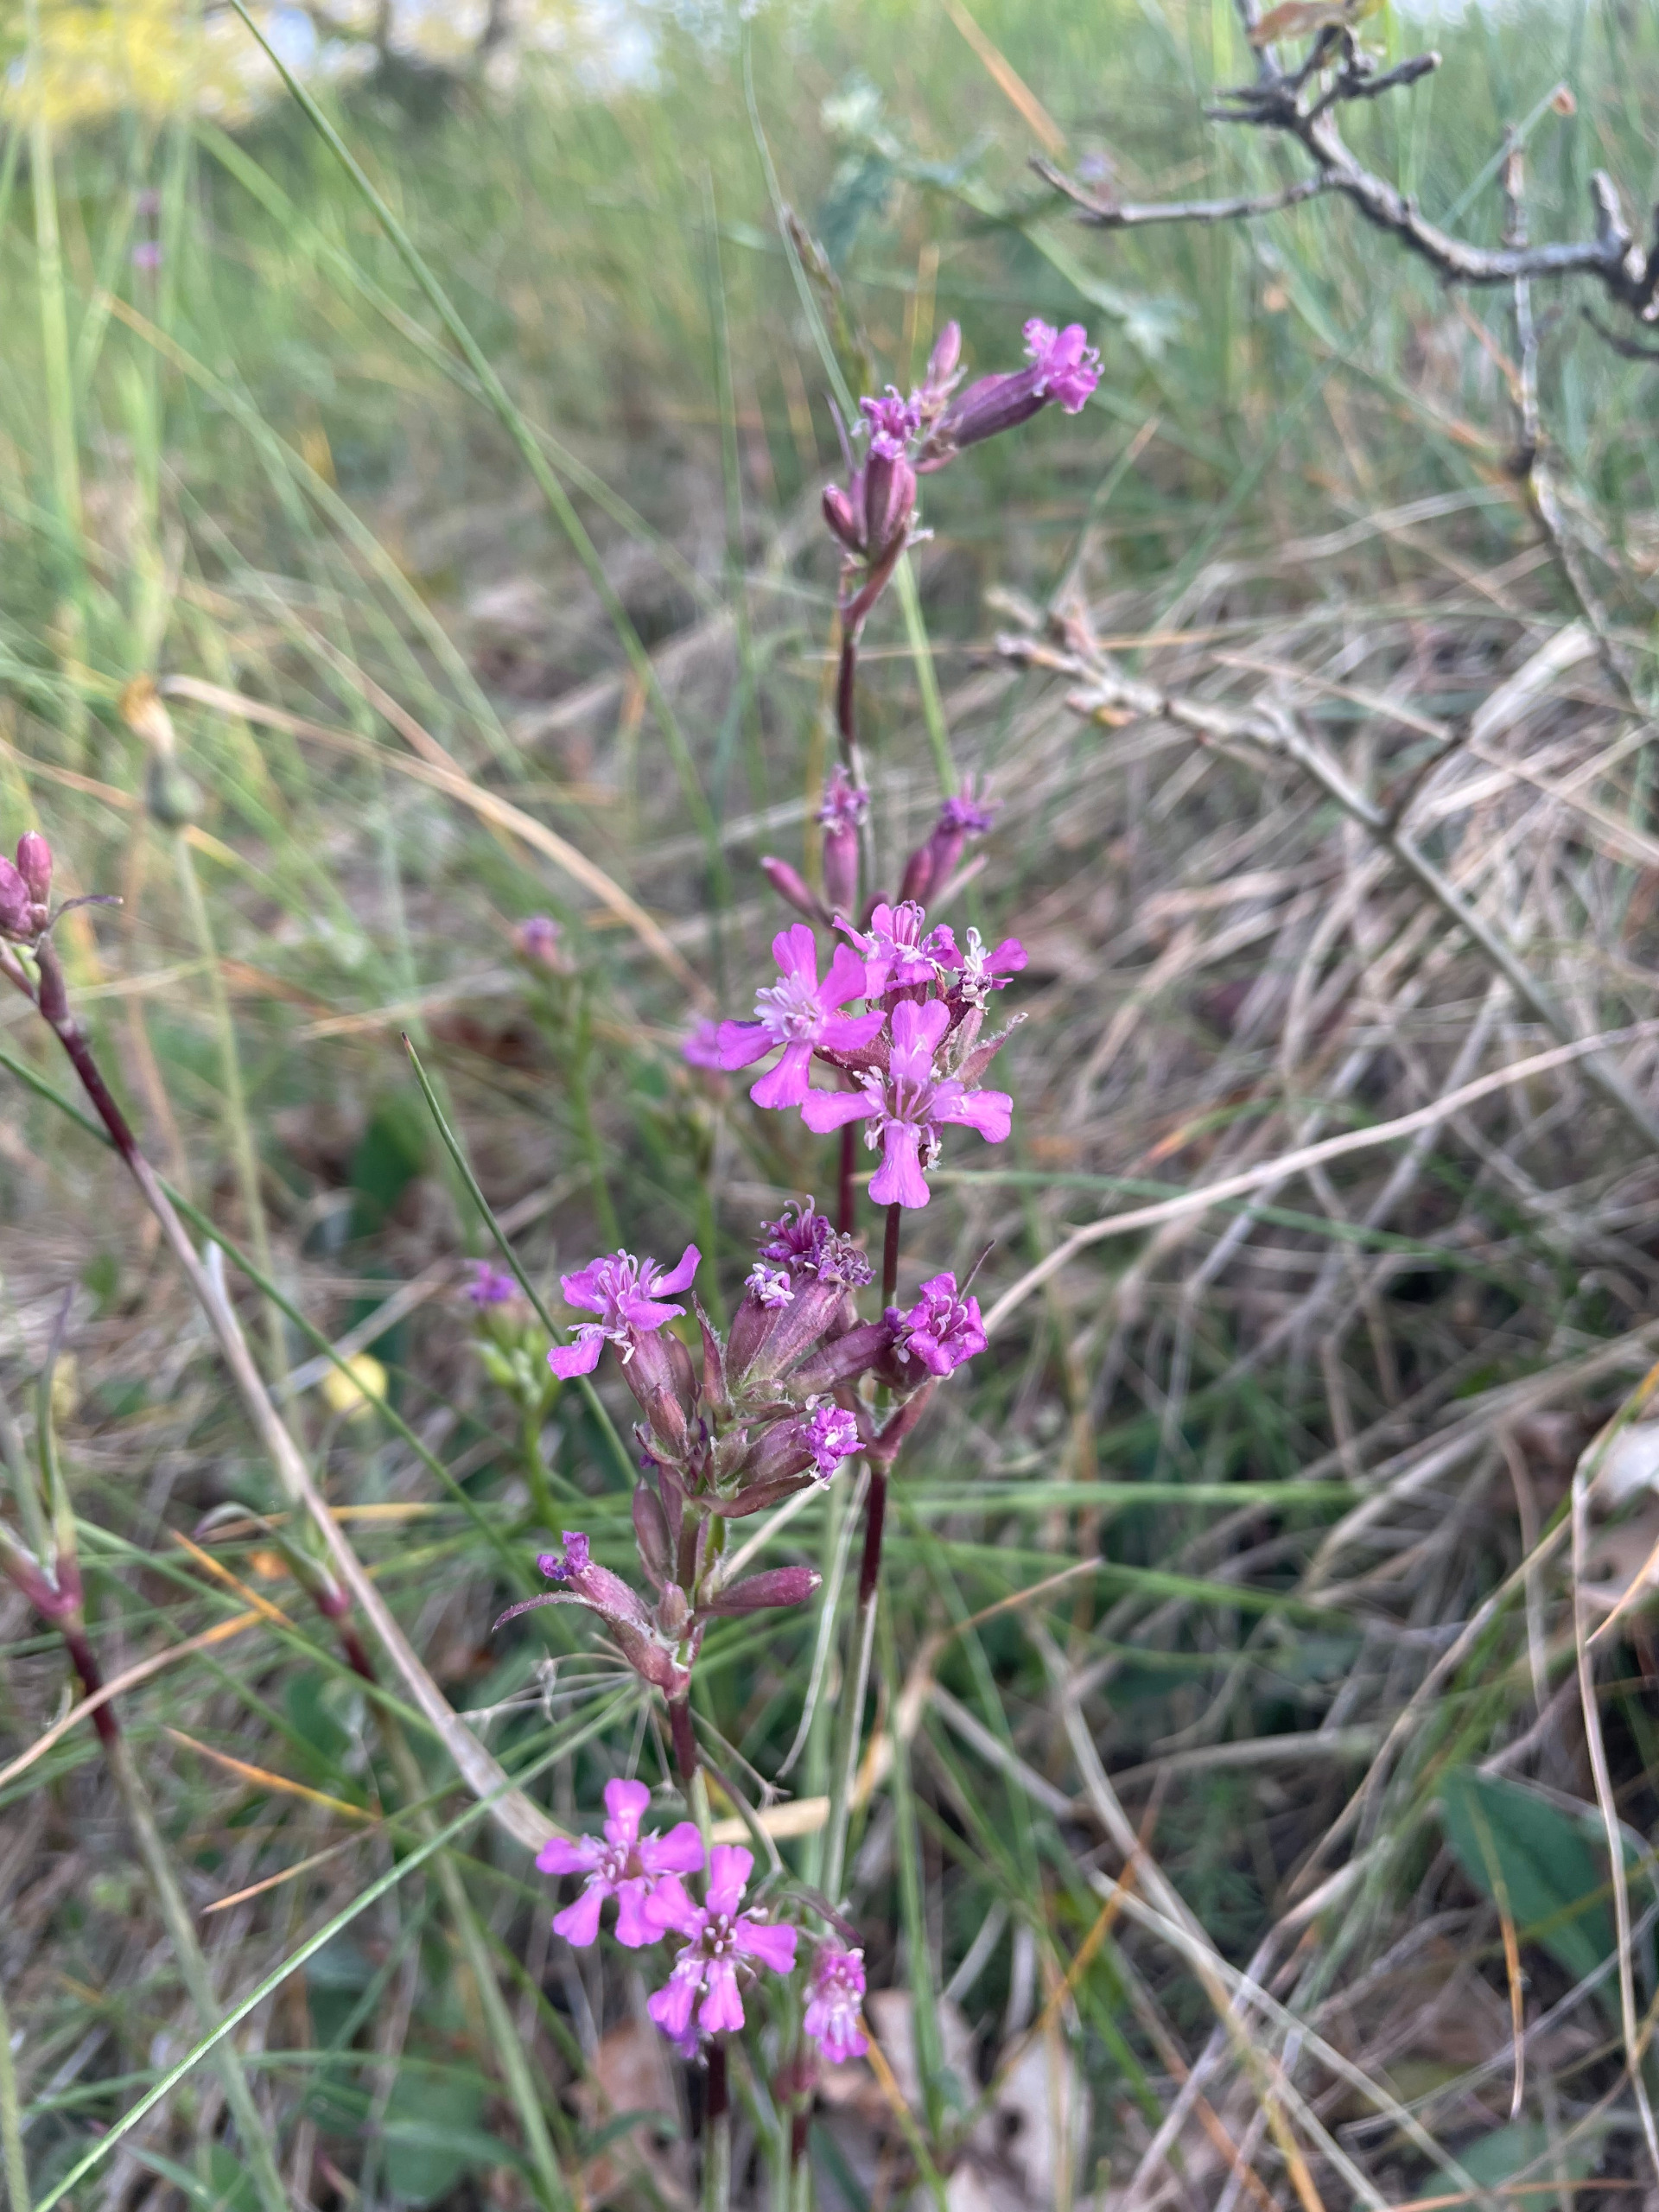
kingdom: Plantae
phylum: Tracheophyta
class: Magnoliopsida
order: Caryophyllales
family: Caryophyllaceae
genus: Viscaria
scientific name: Viscaria vulgaris
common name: Tjærenellike
